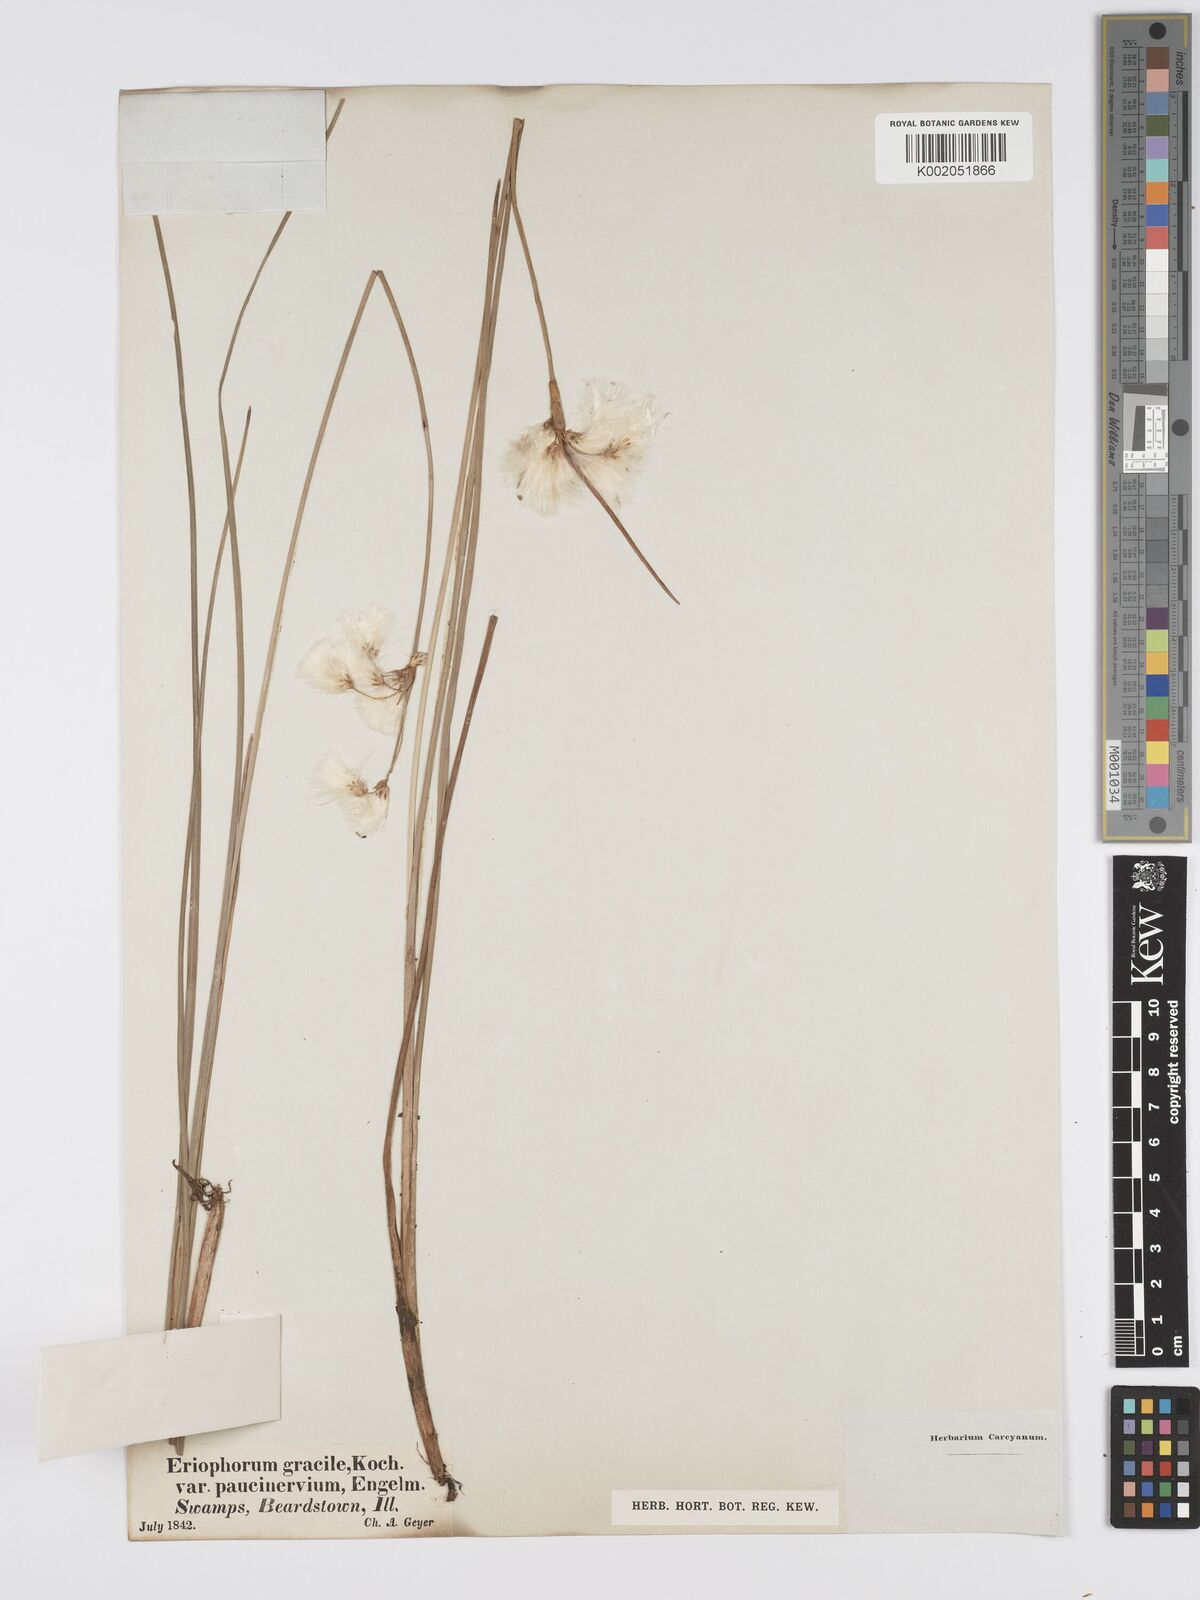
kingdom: Plantae
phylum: Tracheophyta
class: Liliopsida
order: Poales
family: Cyperaceae
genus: Eriophorum
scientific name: Eriophorum gracile
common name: Slender cottongrass
